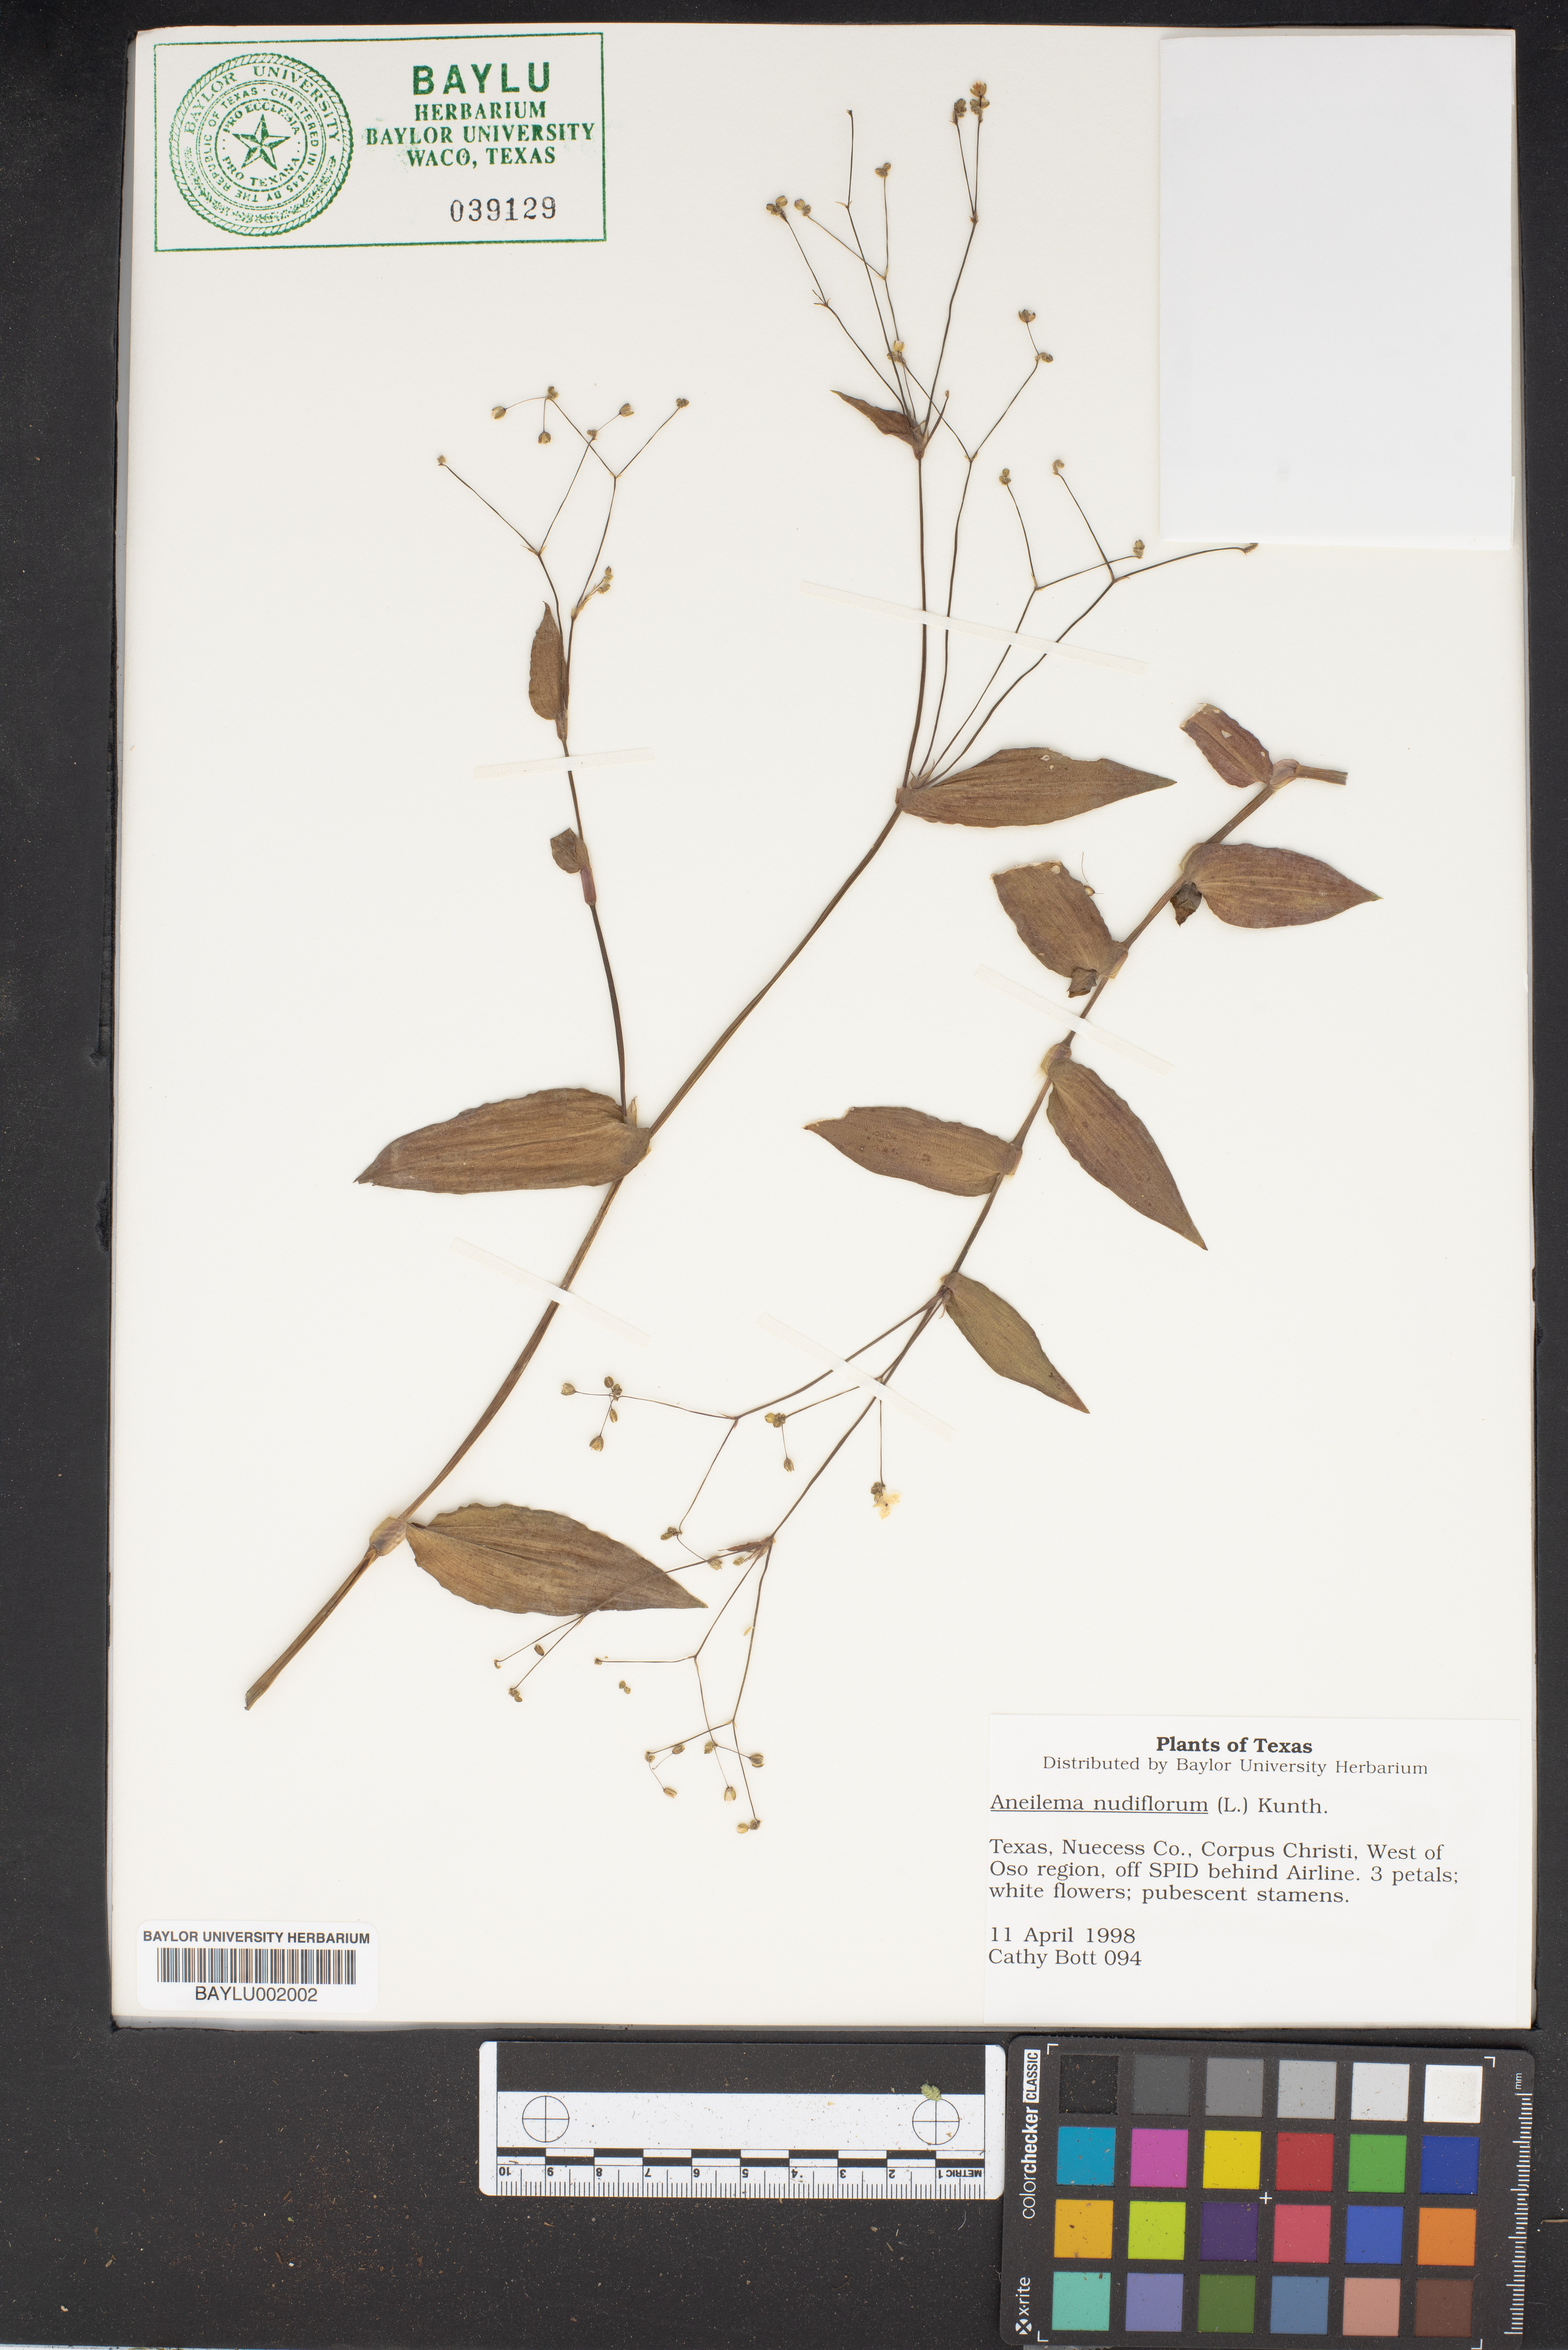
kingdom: Plantae
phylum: Tracheophyta
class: Liliopsida
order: Commelinales
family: Commelinaceae
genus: Murdannia
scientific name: Murdannia nudiflora
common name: Nakedstem dewflower
